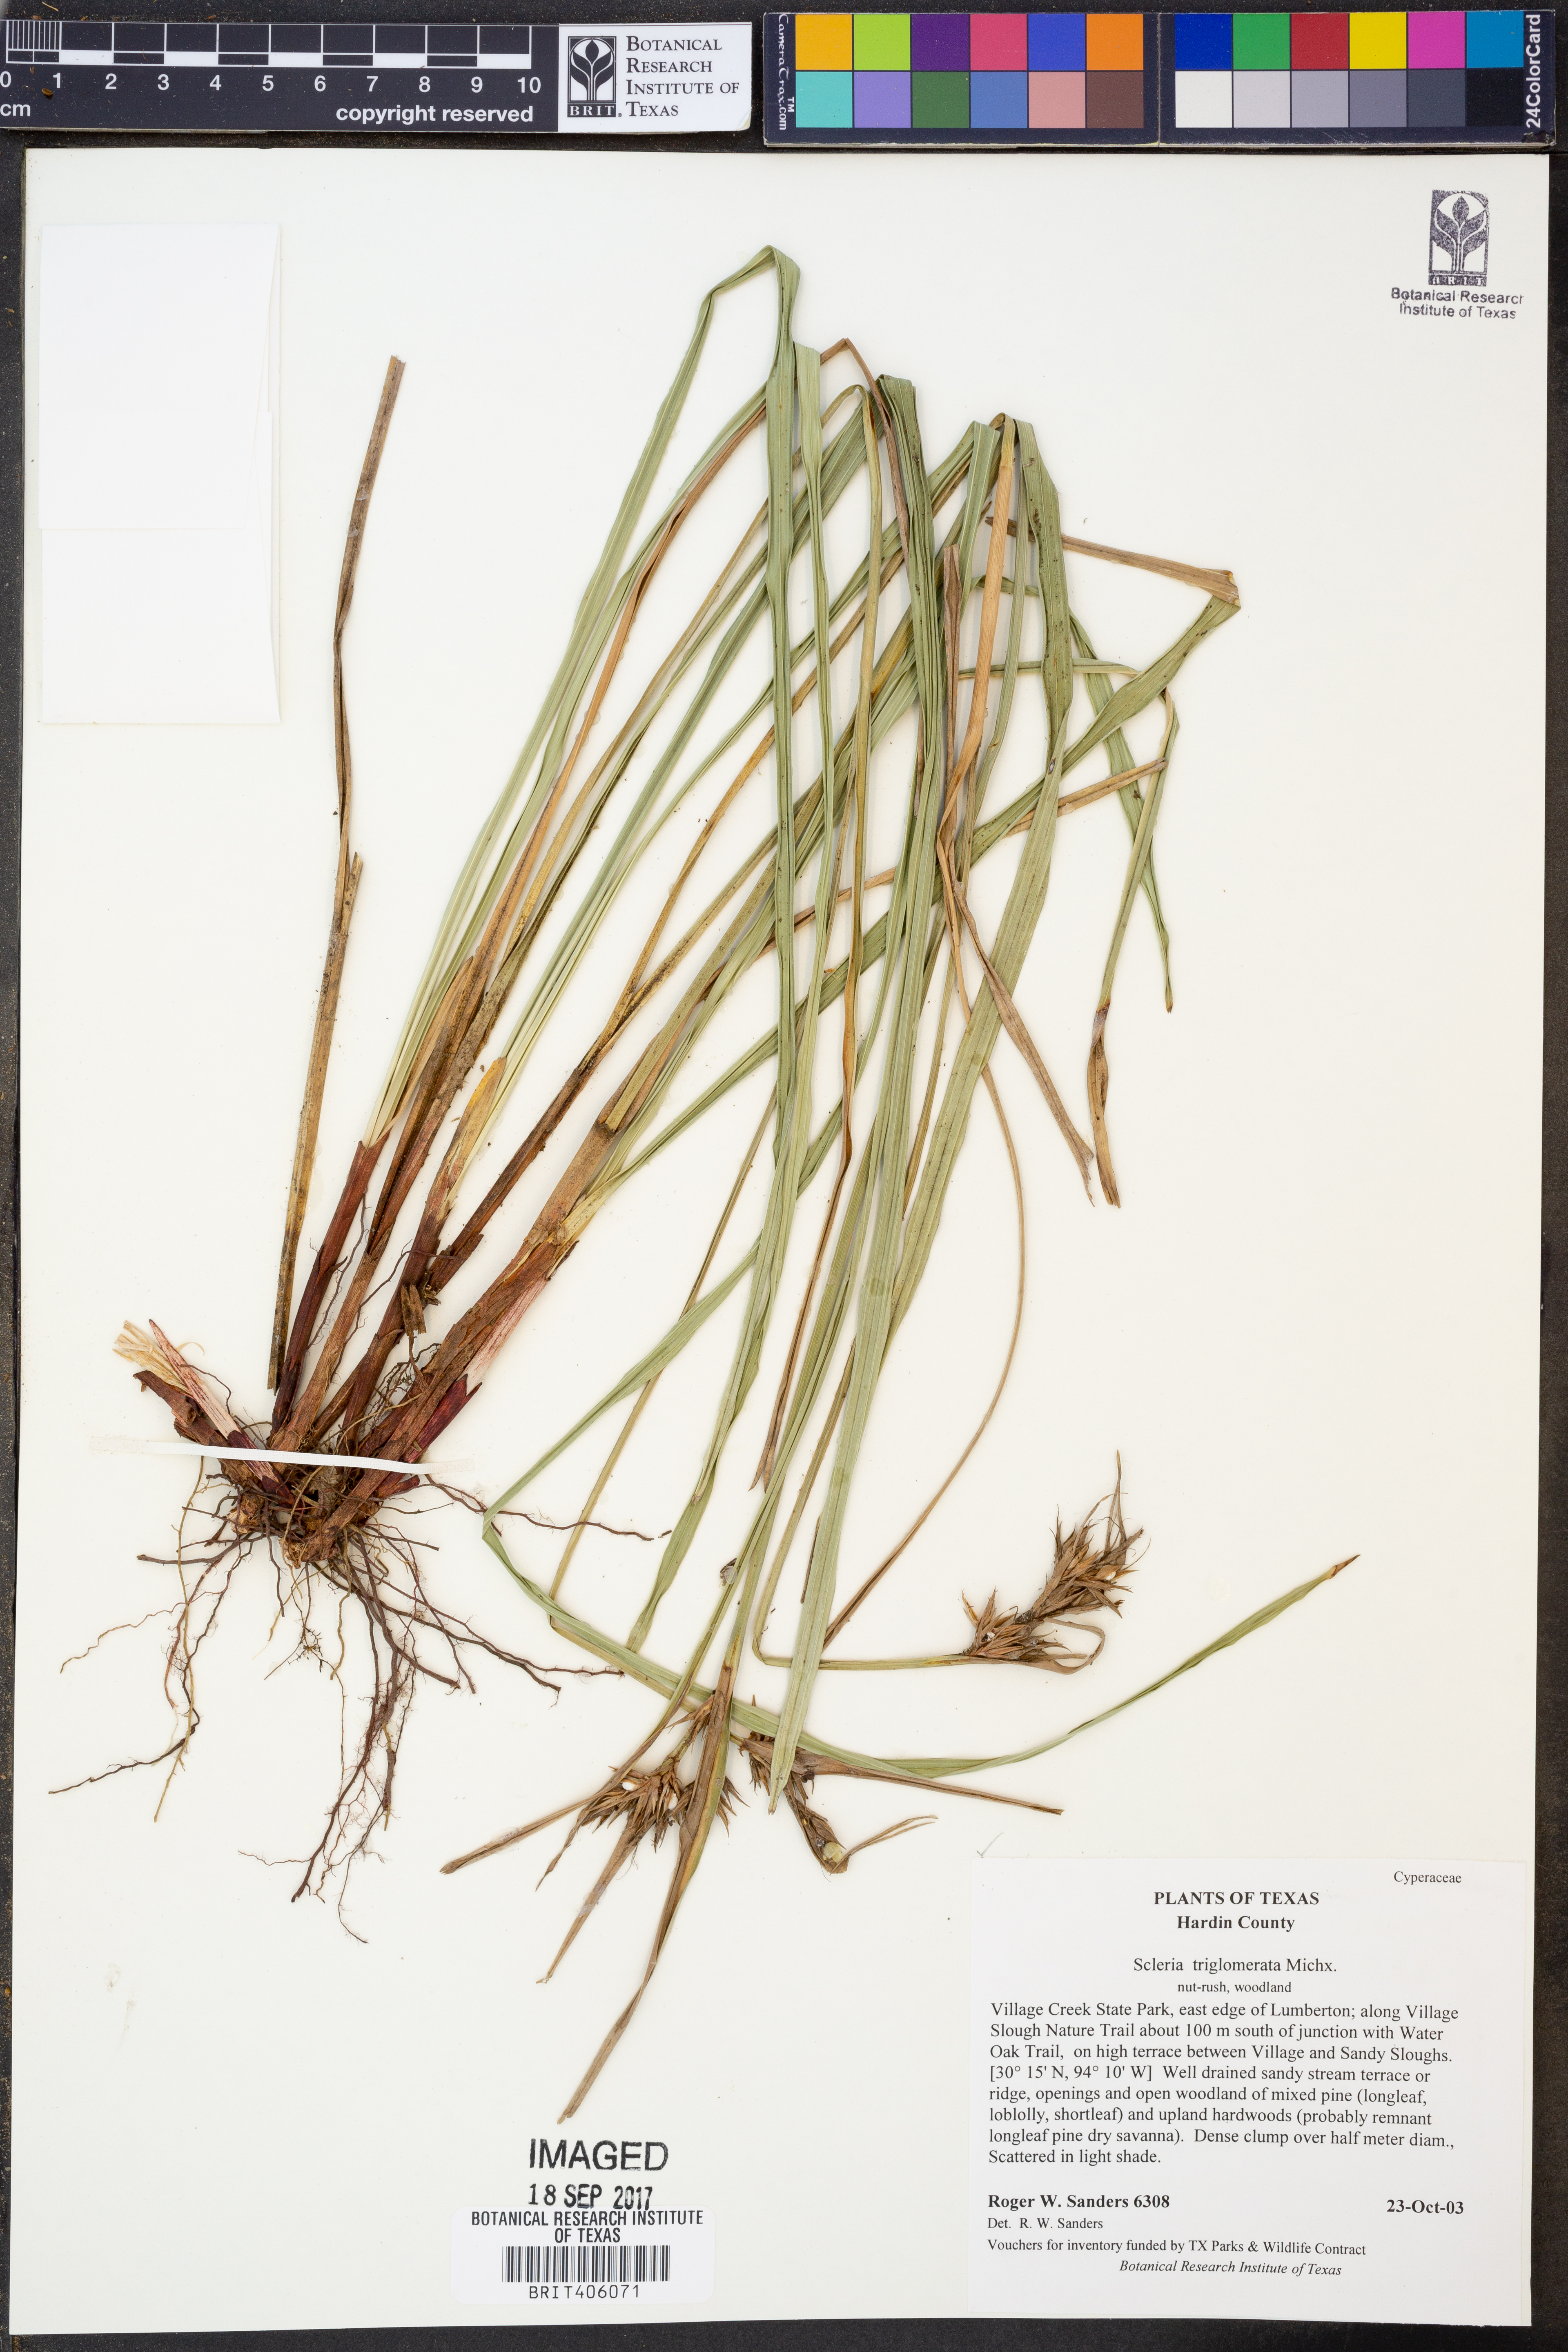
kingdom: Plantae
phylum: Tracheophyta
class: Liliopsida
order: Poales
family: Cyperaceae
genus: Scleria
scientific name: Scleria triglomerata
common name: Whip nutrush
